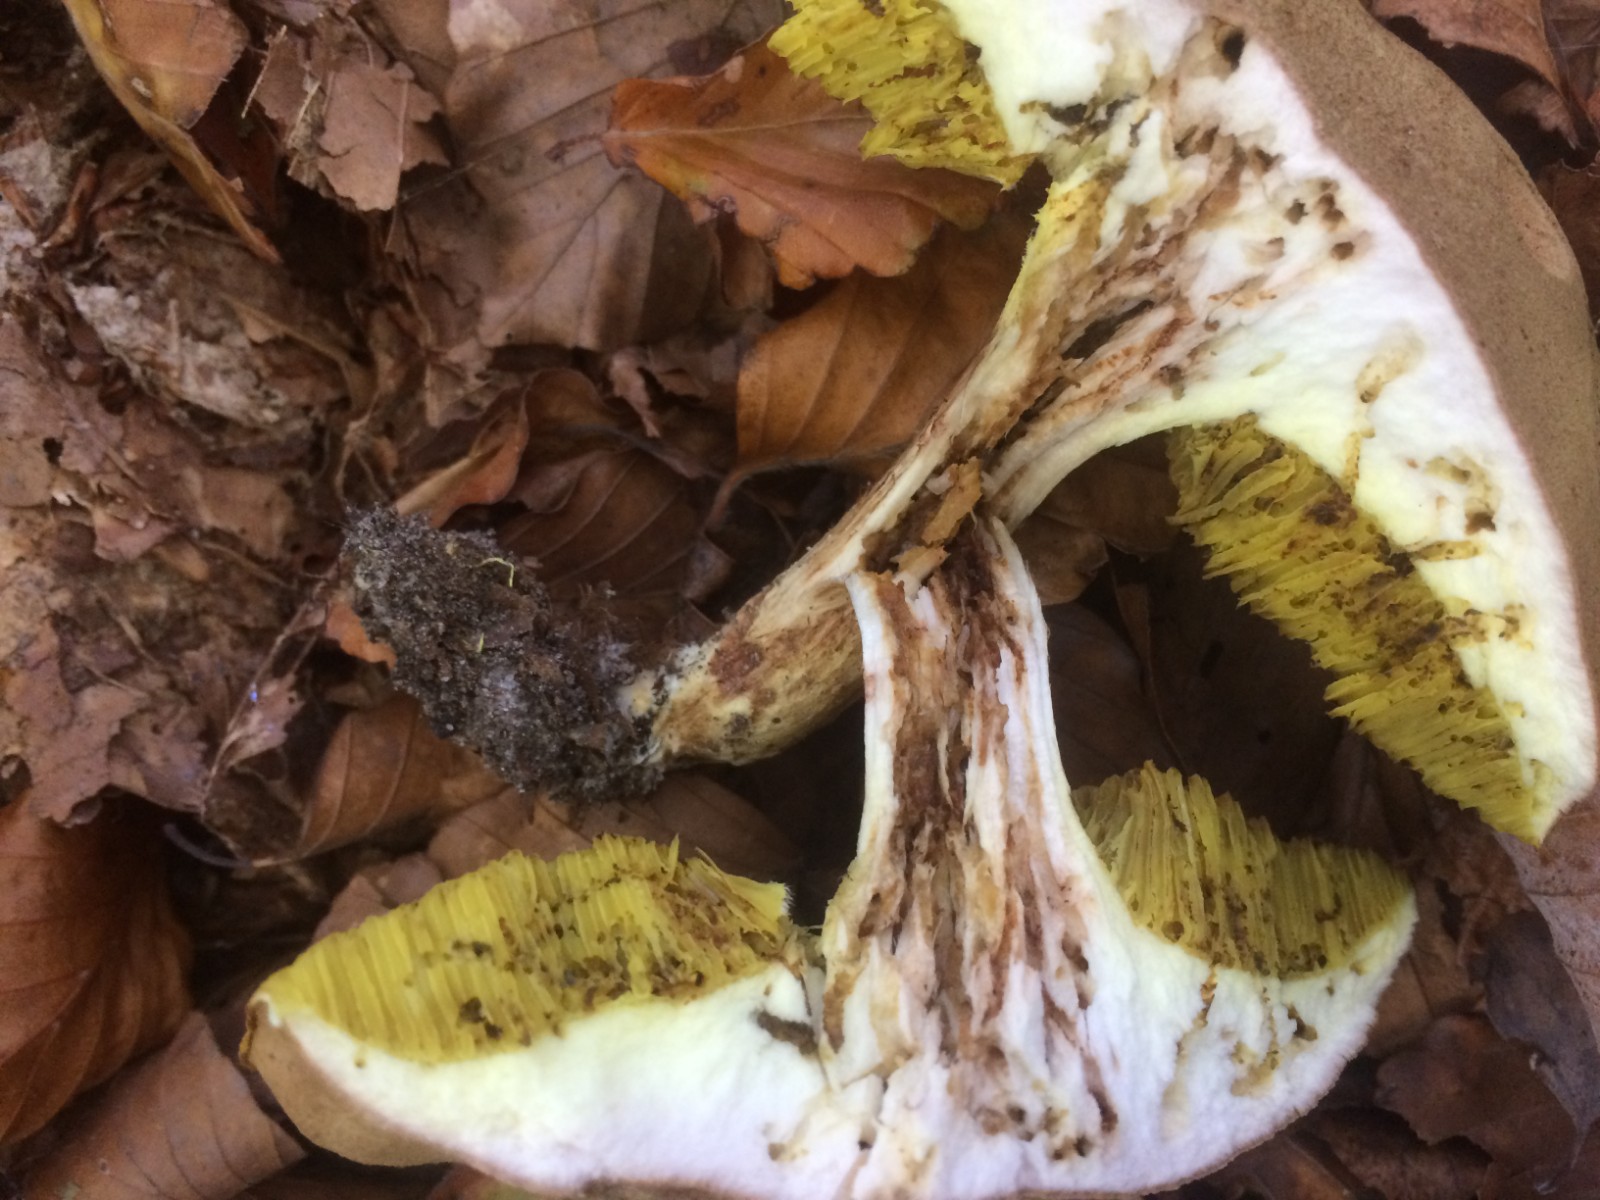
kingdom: Fungi
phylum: Basidiomycota
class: Agaricomycetes
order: Boletales
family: Boletaceae
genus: Xerocomus
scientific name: Xerocomus ferrugineus
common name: vaskeskinds-rørhat
